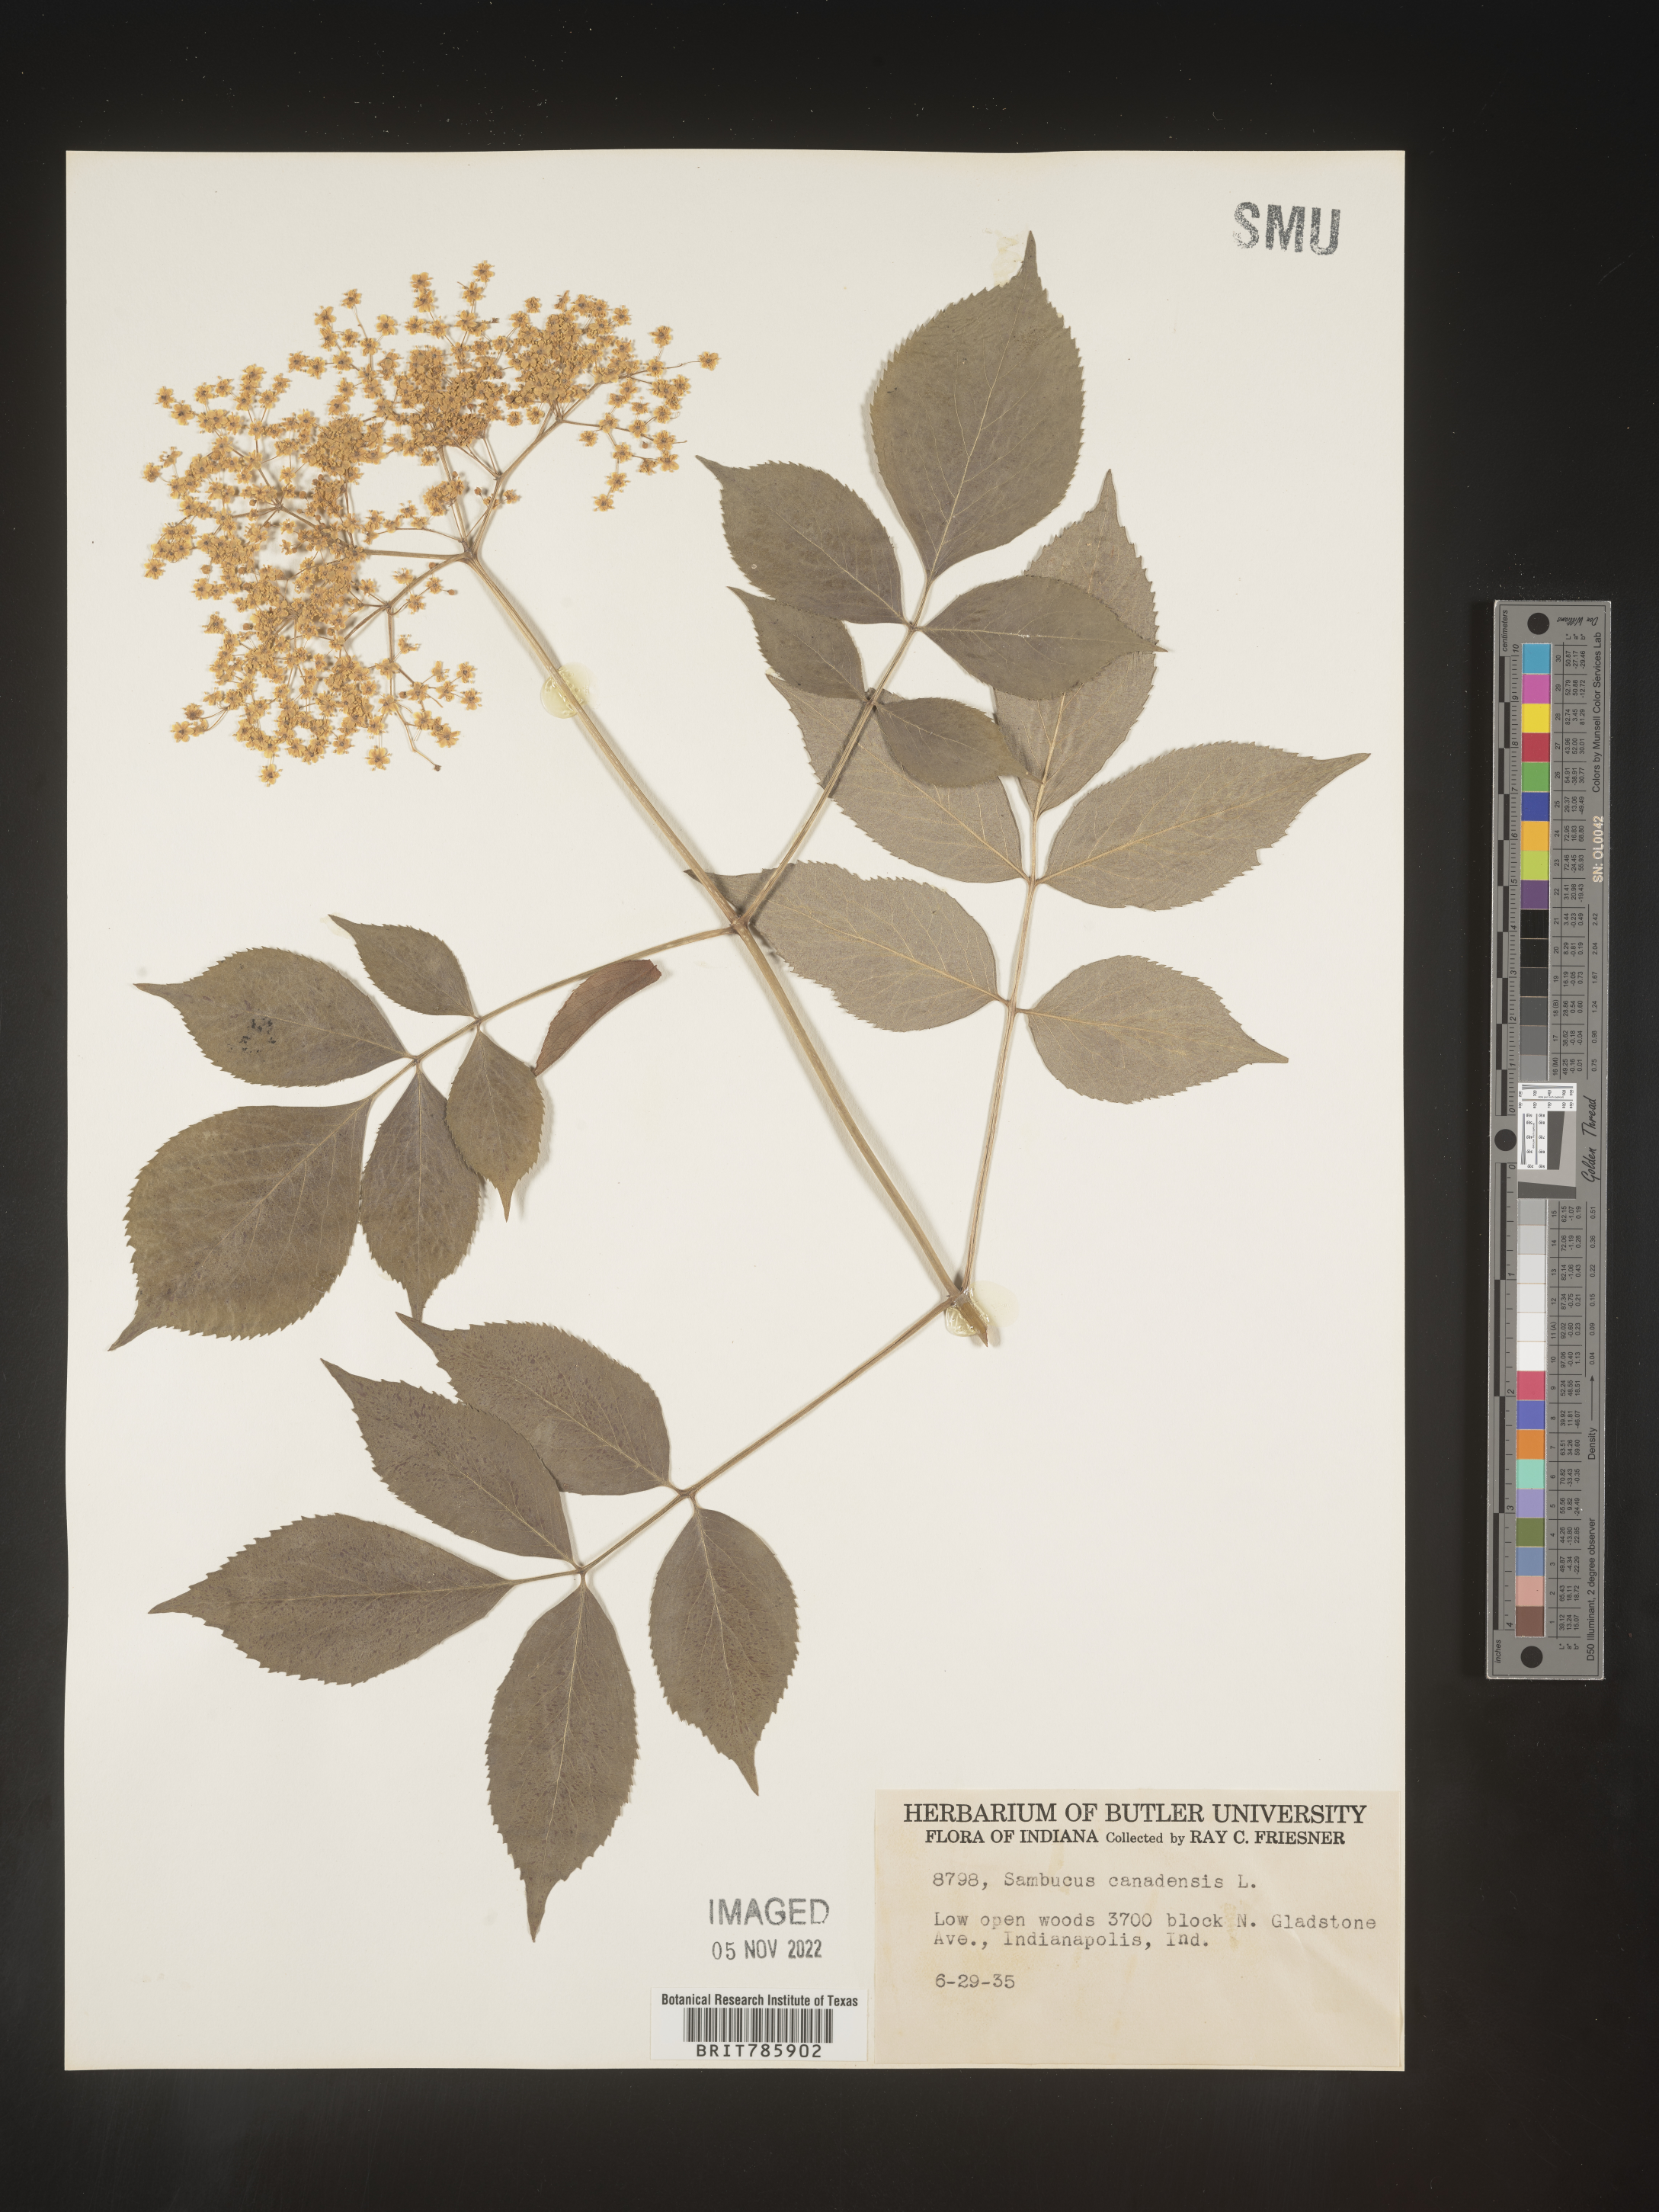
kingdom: Plantae
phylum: Tracheophyta
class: Magnoliopsida
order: Dipsacales
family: Viburnaceae
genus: Sambucus
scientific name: Sambucus nigra
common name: Elder
